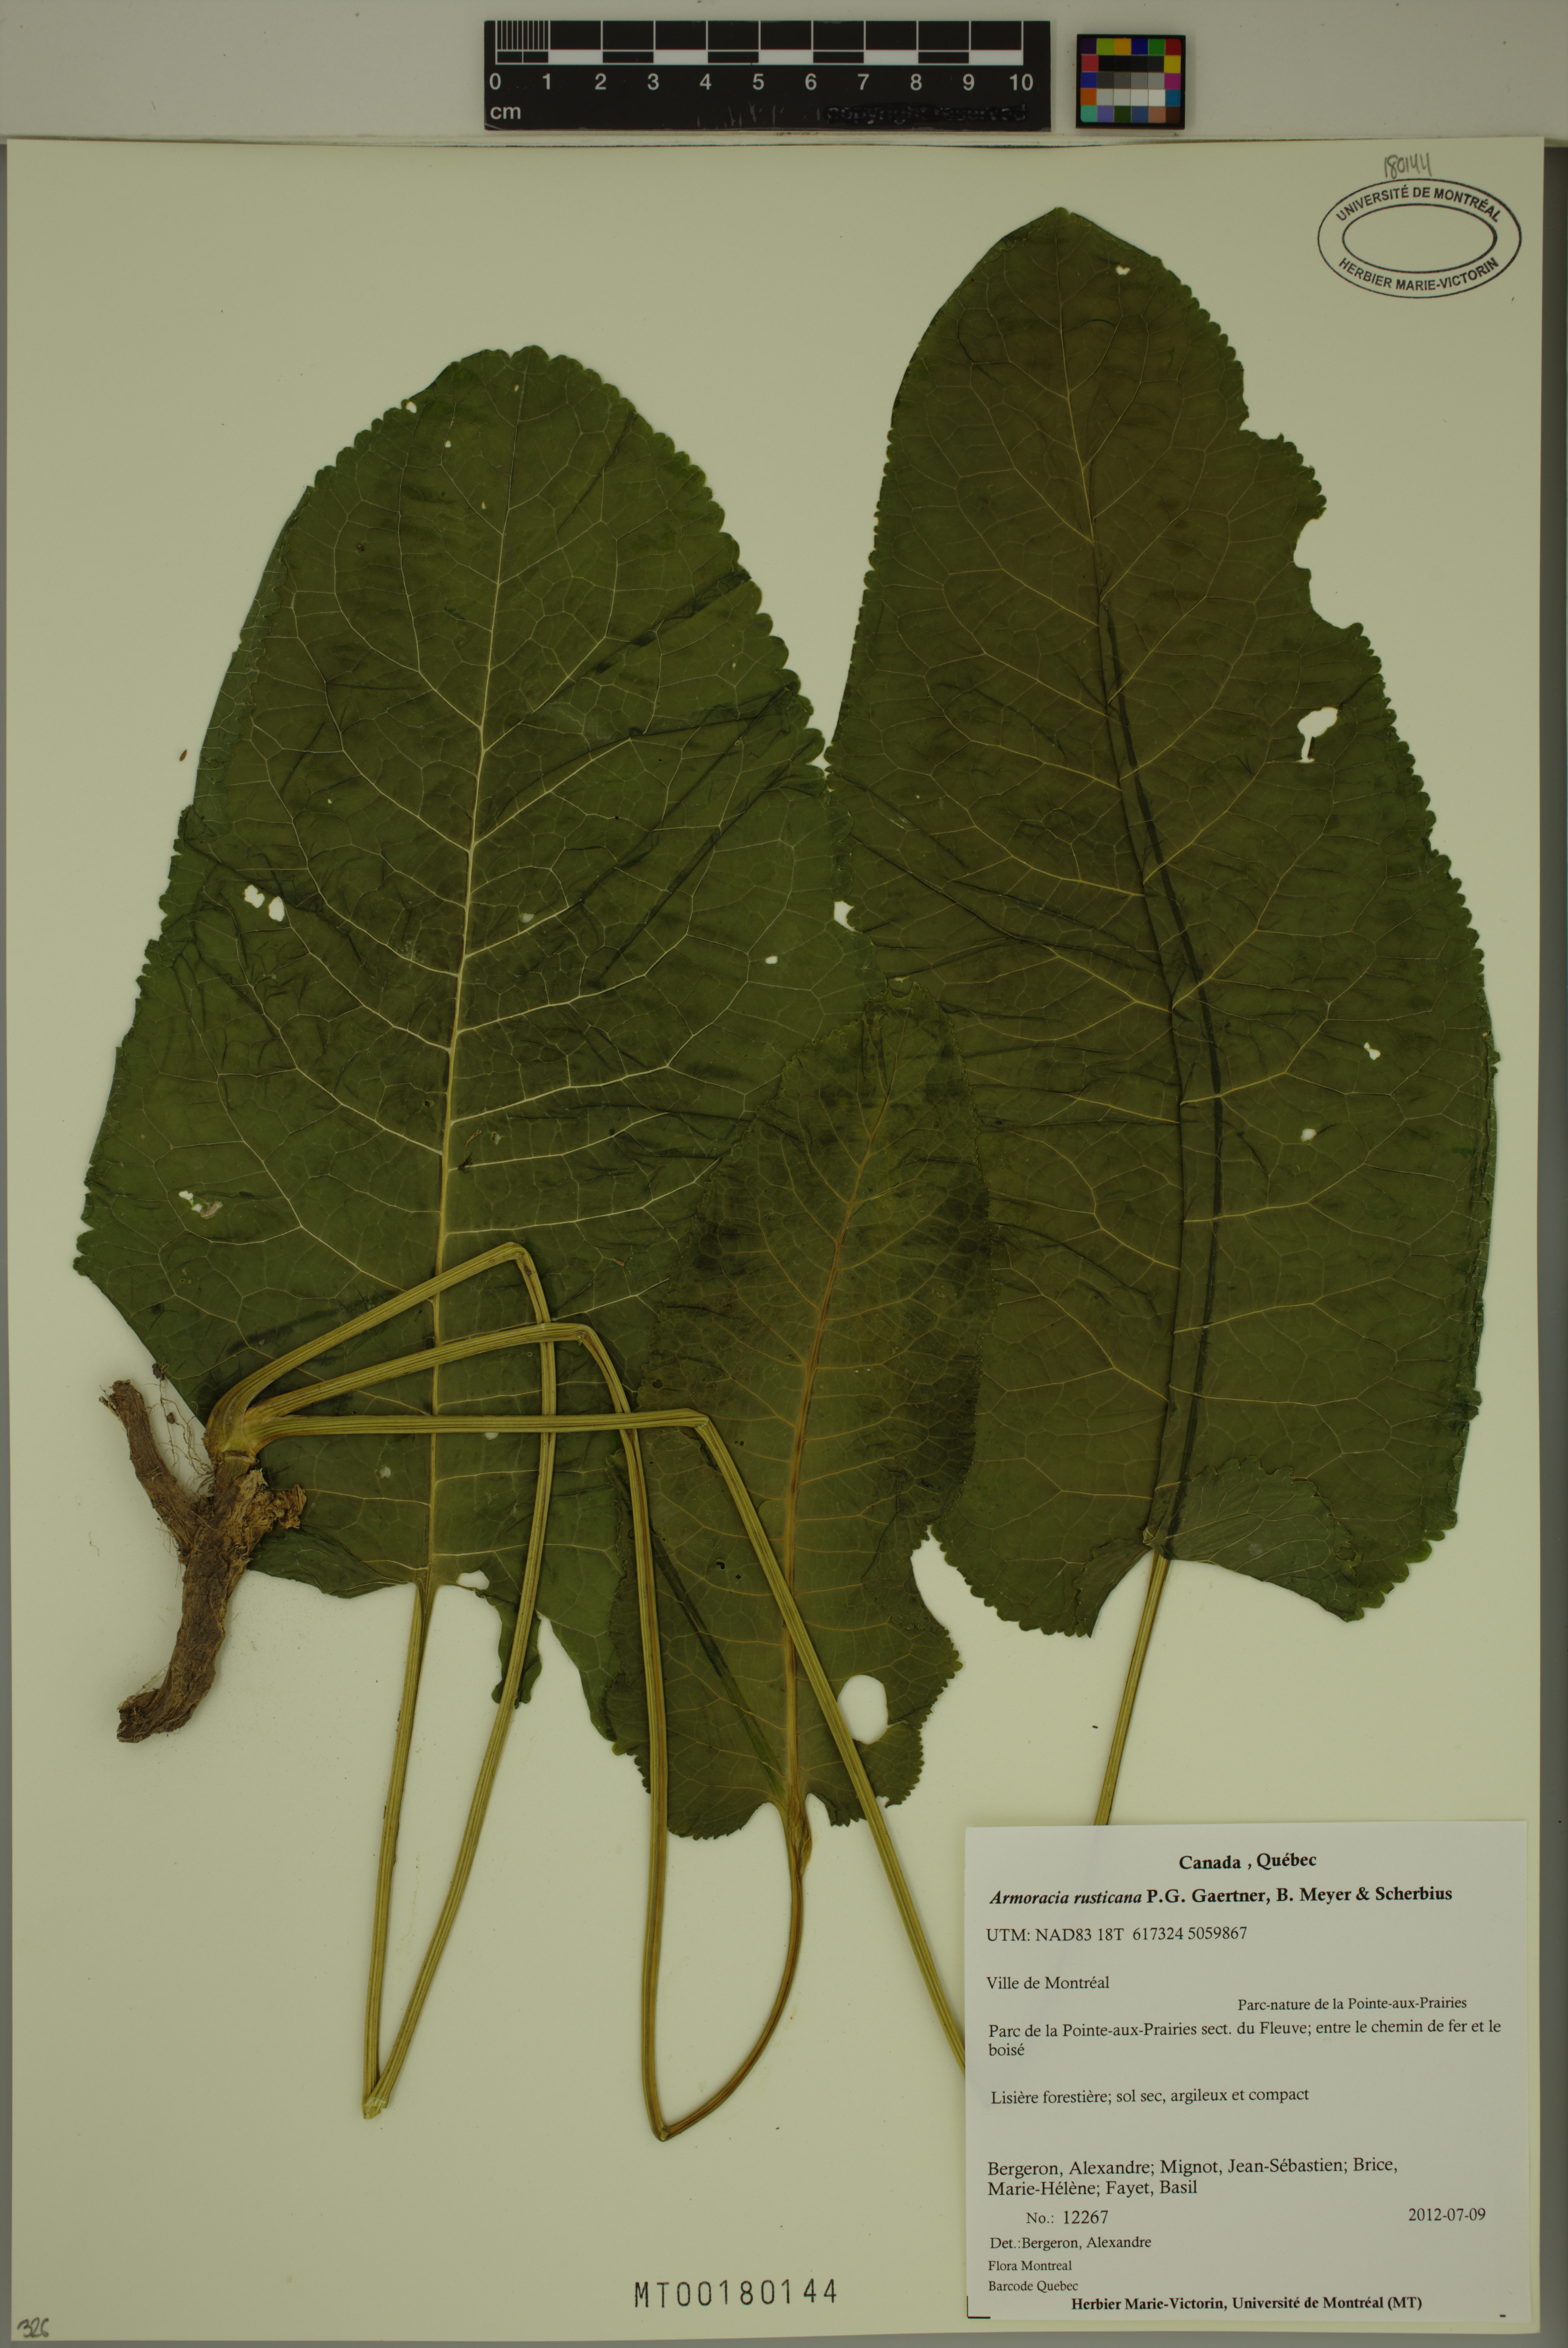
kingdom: Plantae
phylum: Tracheophyta
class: Magnoliopsida
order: Brassicales
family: Brassicaceae
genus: Armoracia
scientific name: Armoracia rusticana
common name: Horseradish
